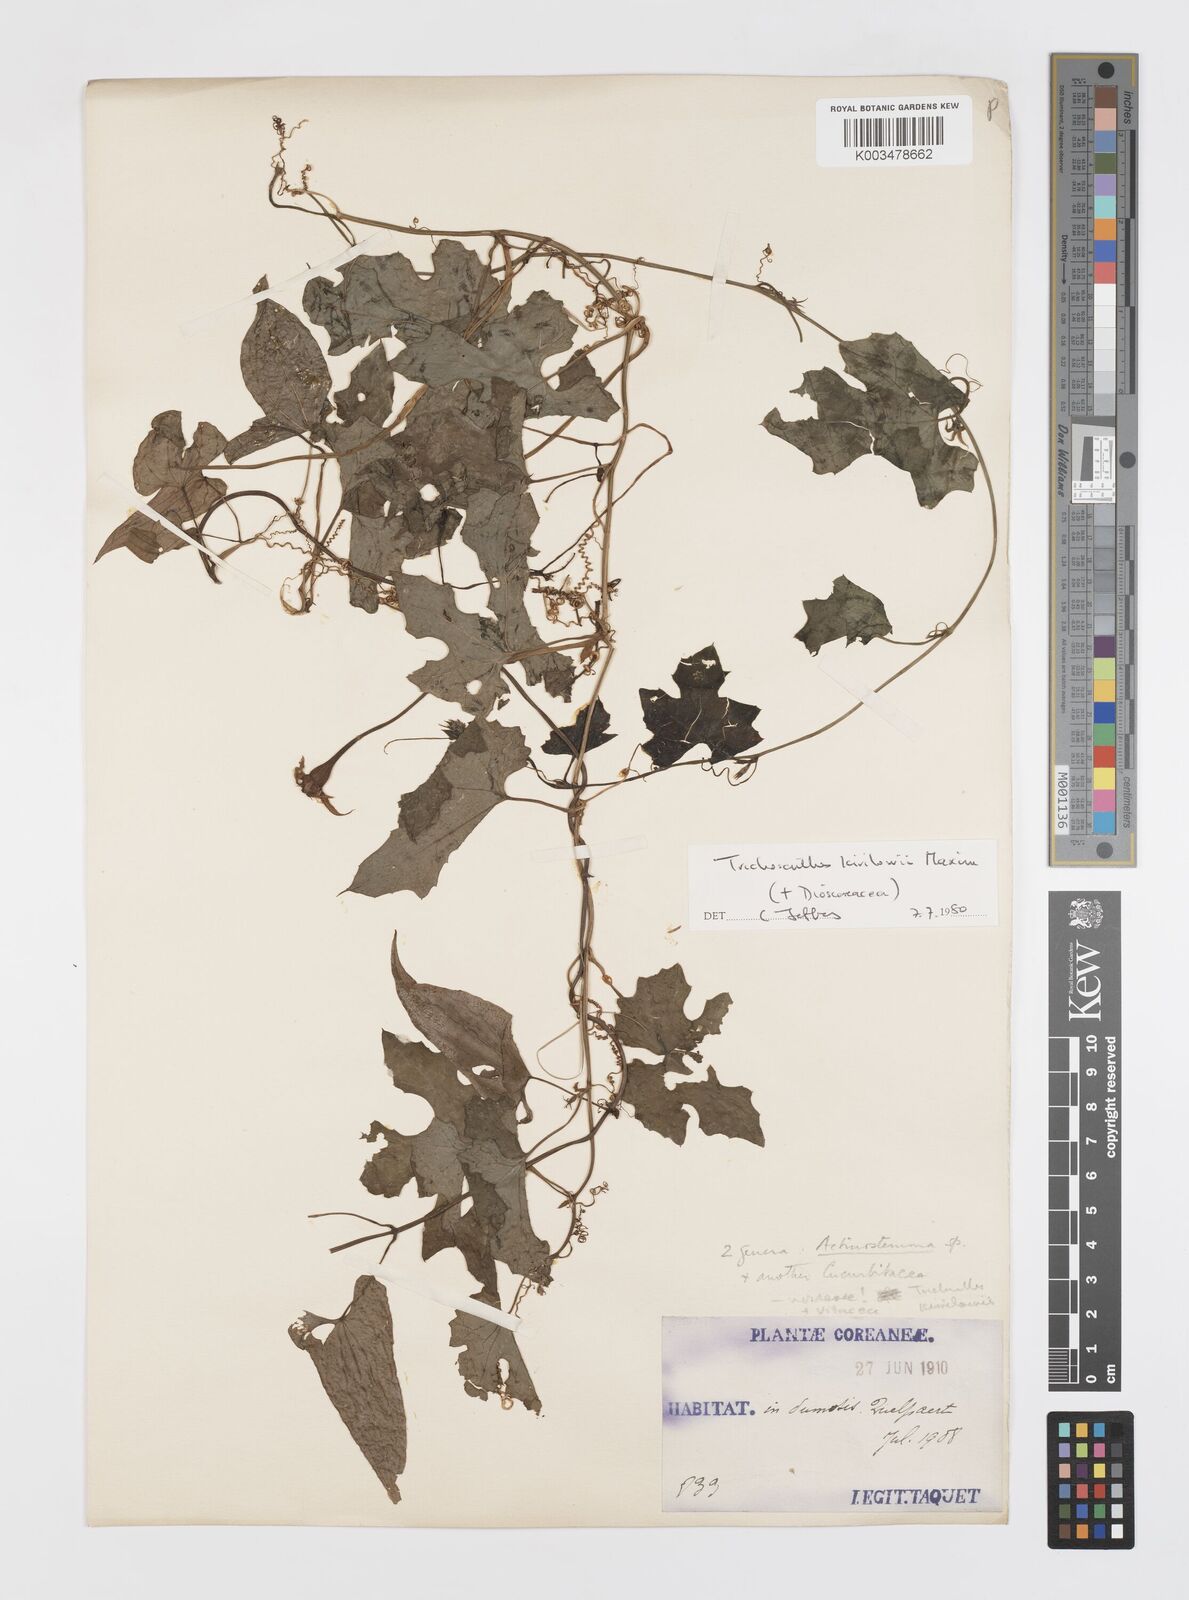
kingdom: Plantae
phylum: Tracheophyta
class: Magnoliopsida
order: Cucurbitales
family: Cucurbitaceae
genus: Trichosanthes
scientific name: Trichosanthes kirilowii
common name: Chinese-cucumber
